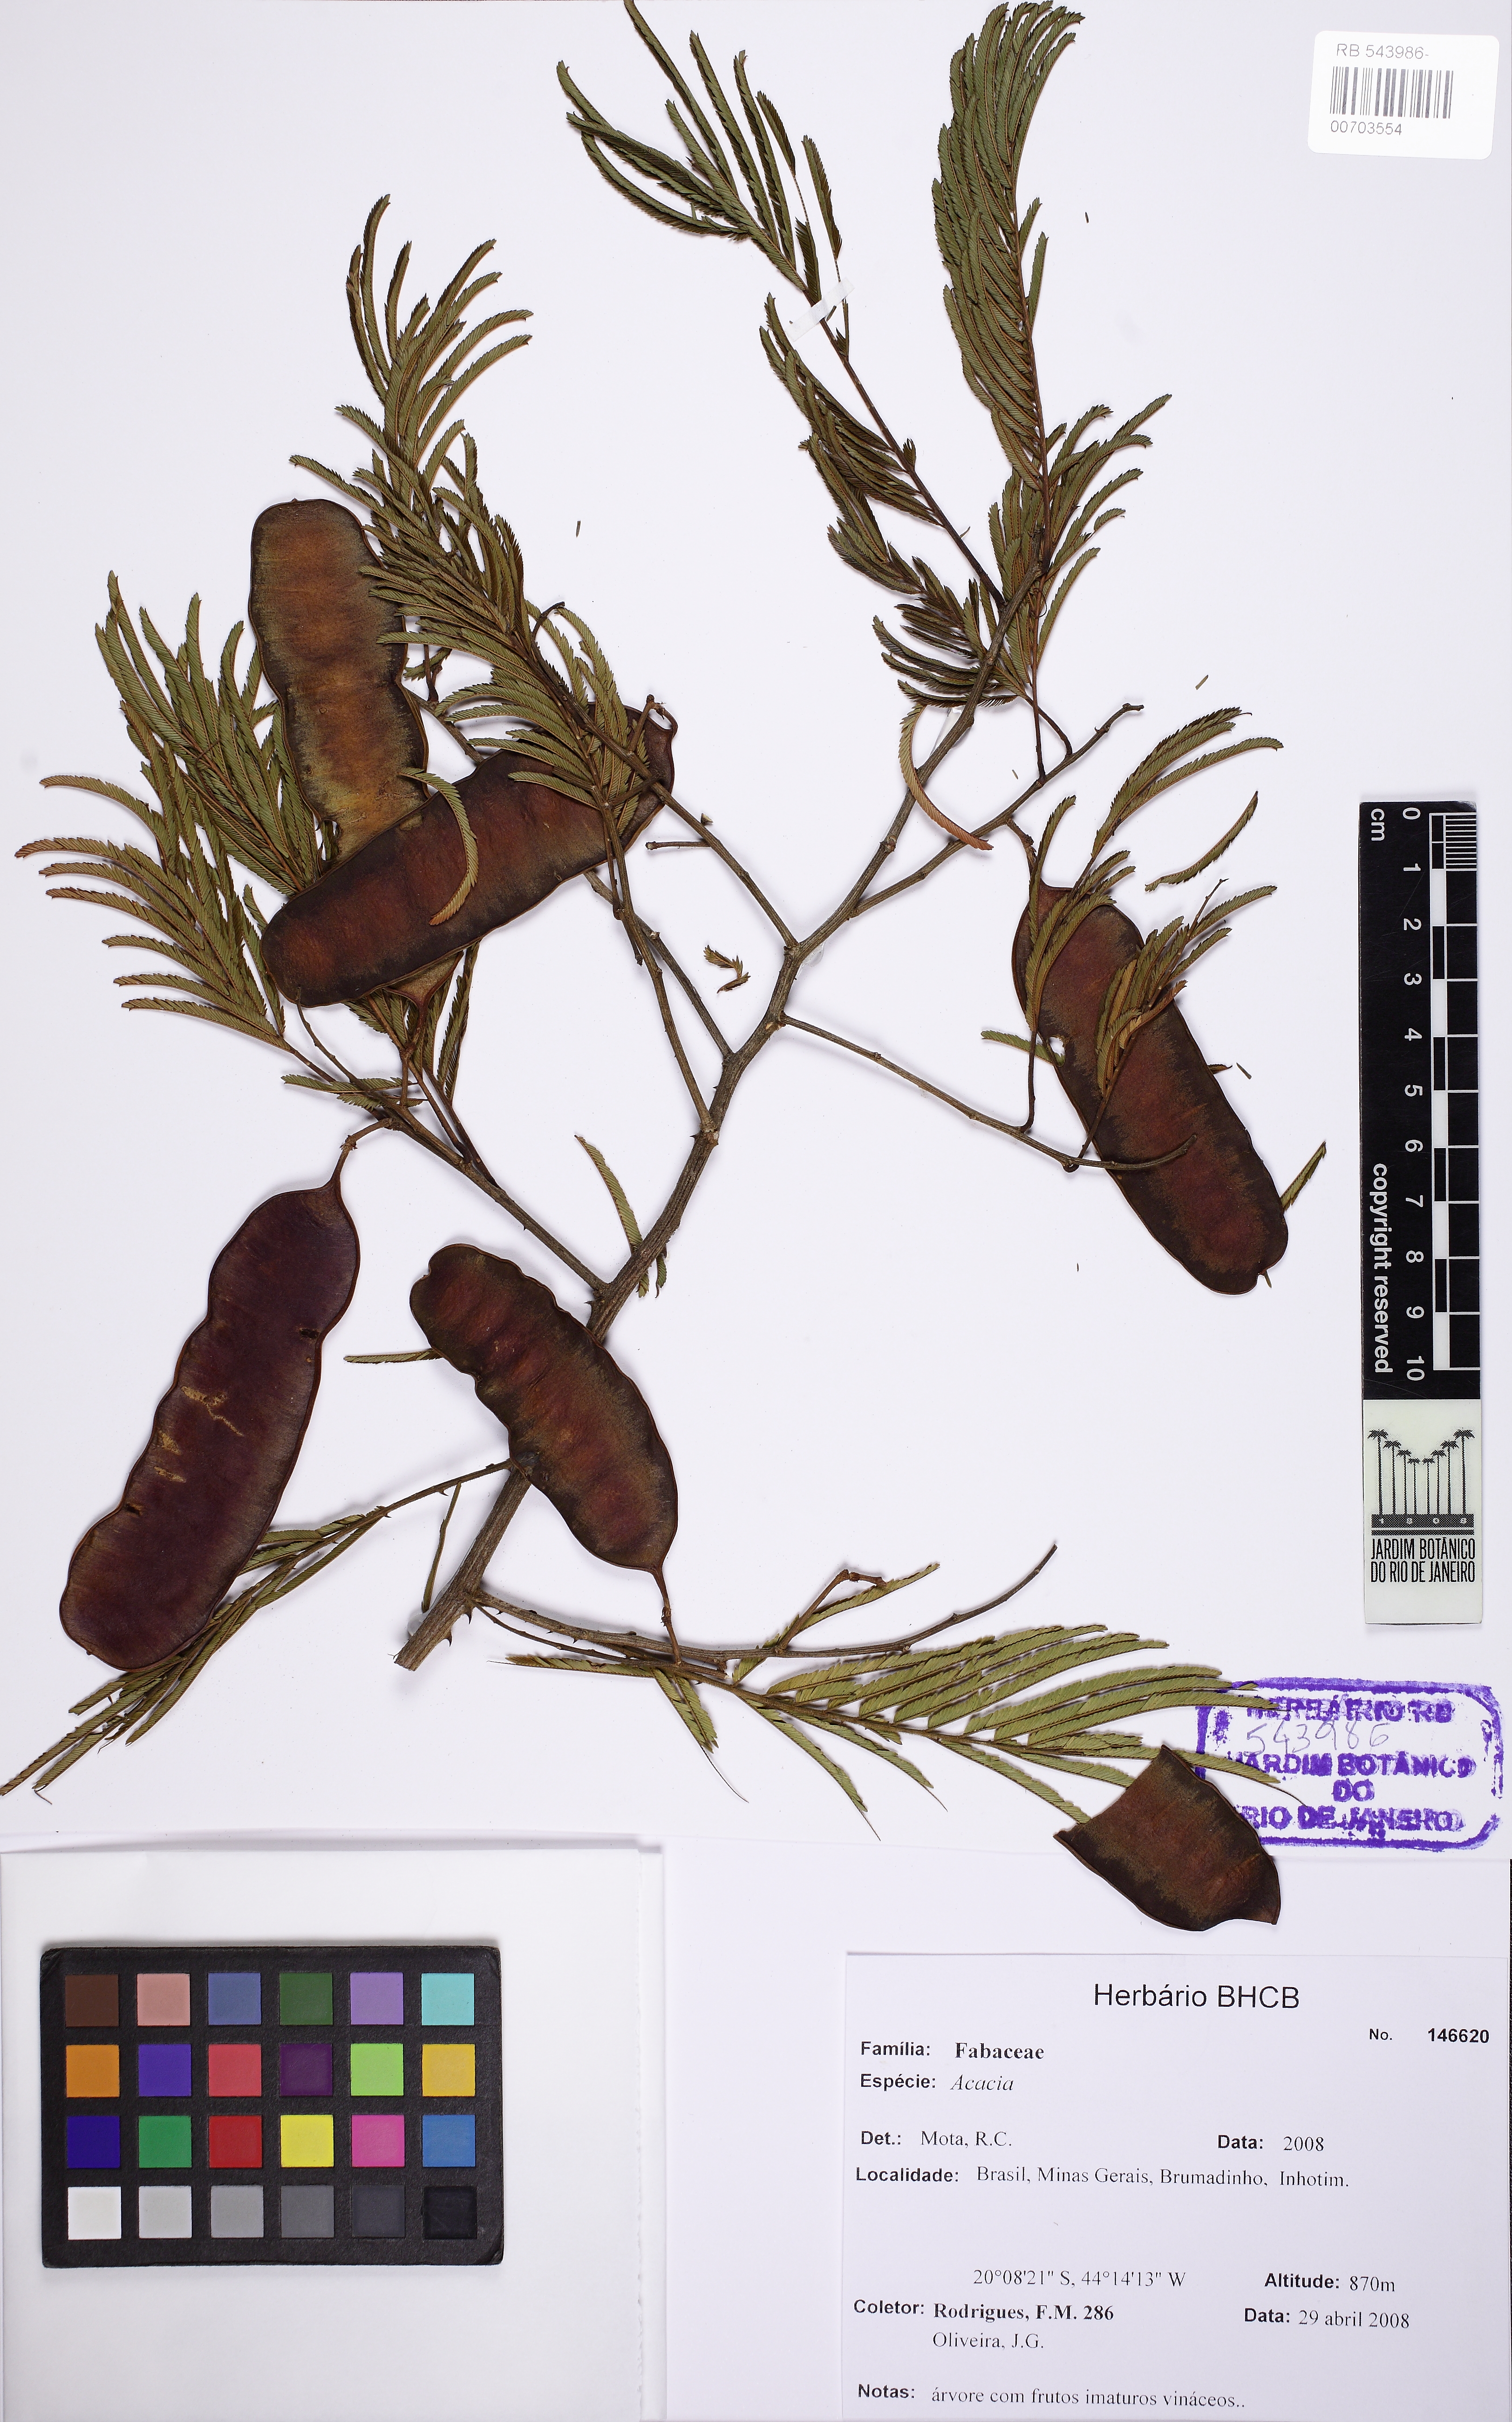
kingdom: Plantae
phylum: Tracheophyta
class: Magnoliopsida
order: Fabales
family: Fabaceae
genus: Acacia
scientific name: Acacia
